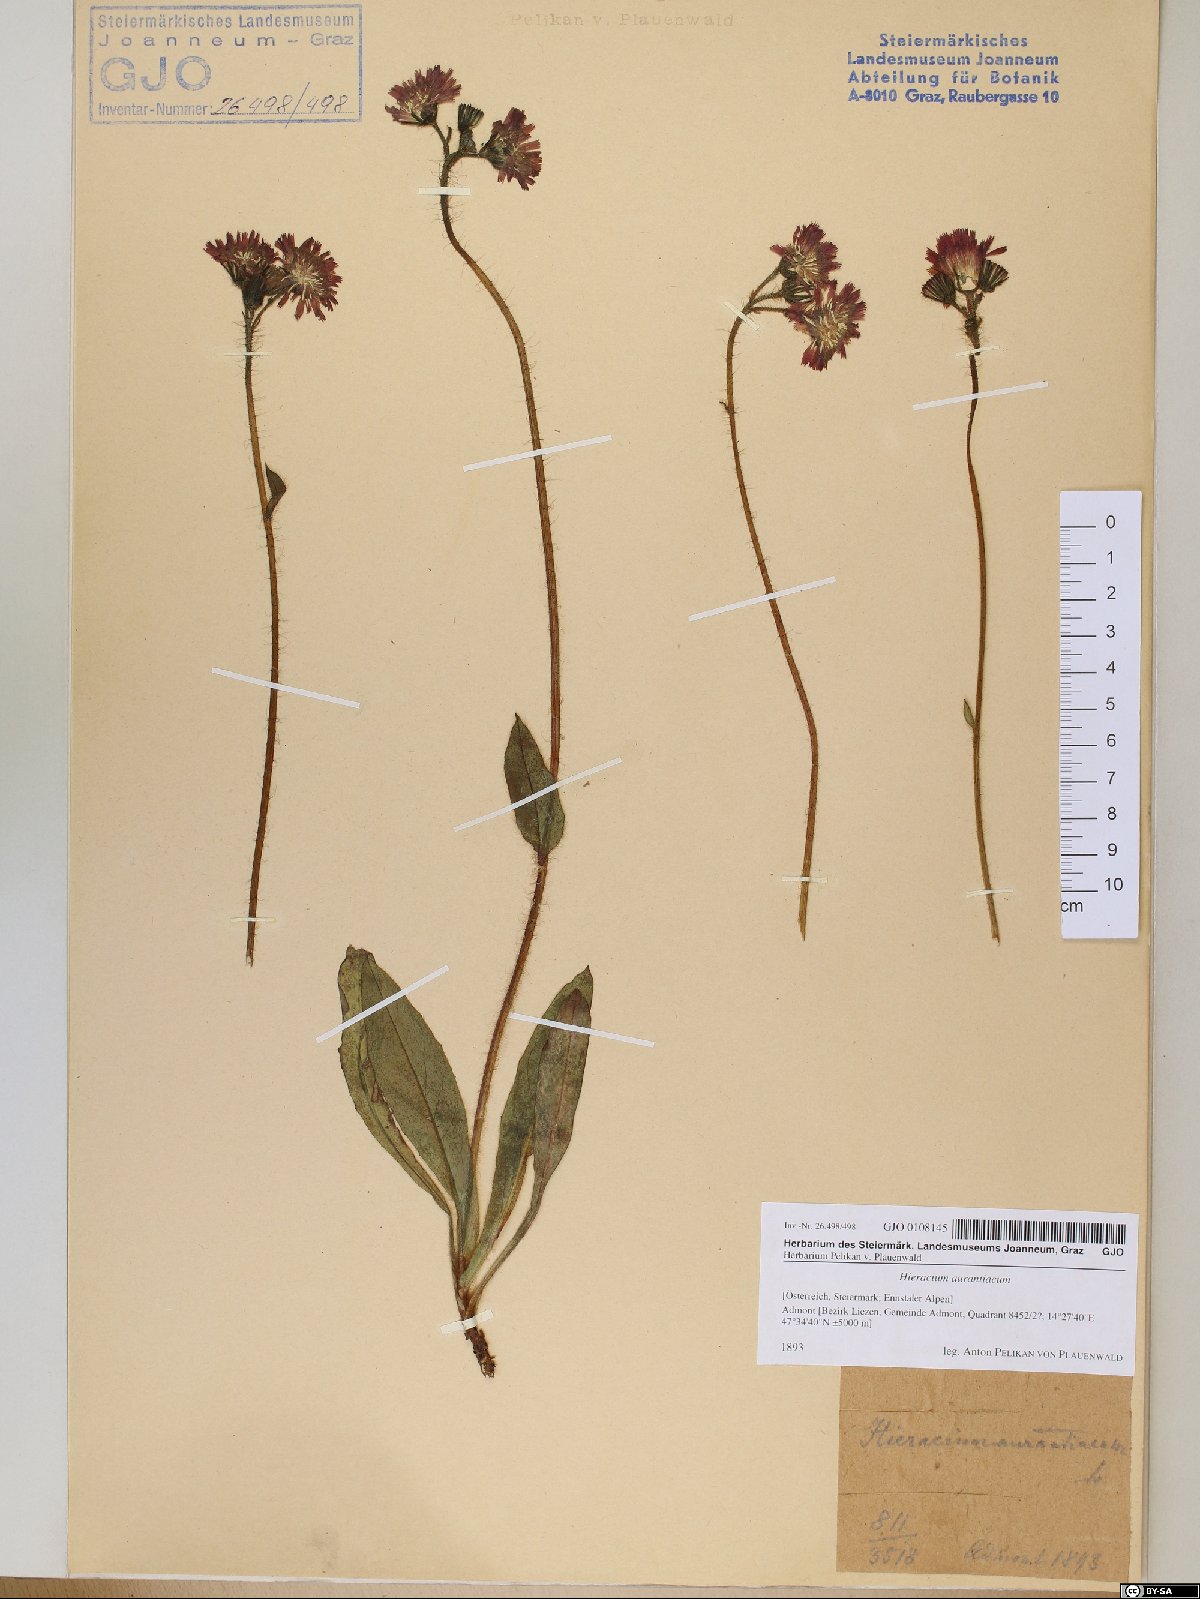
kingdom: Plantae
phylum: Tracheophyta
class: Magnoliopsida
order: Asterales
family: Asteraceae
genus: Pilosella
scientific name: Pilosella aurantiaca
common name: Fox-and-cubs
